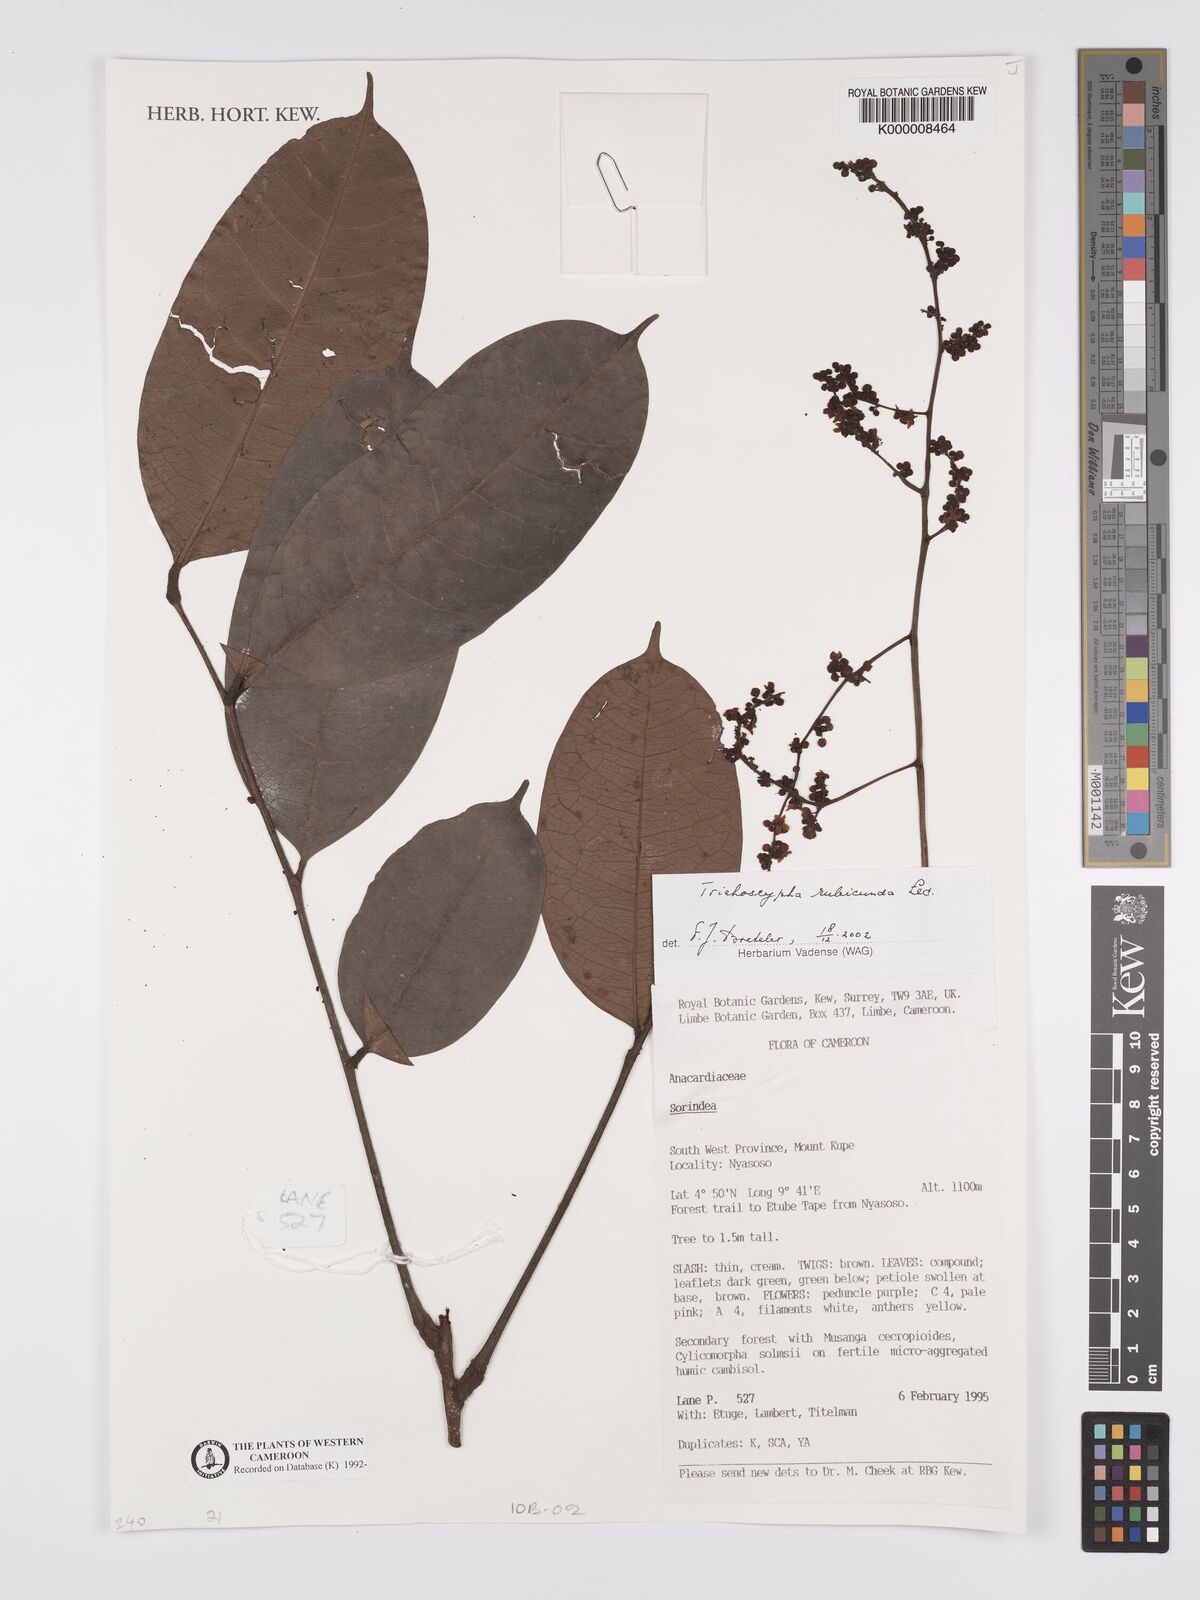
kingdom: Plantae
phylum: Tracheophyta
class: Magnoliopsida
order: Sapindales
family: Anacardiaceae
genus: Trichoscypha
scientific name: Trichoscypha rubicunda
